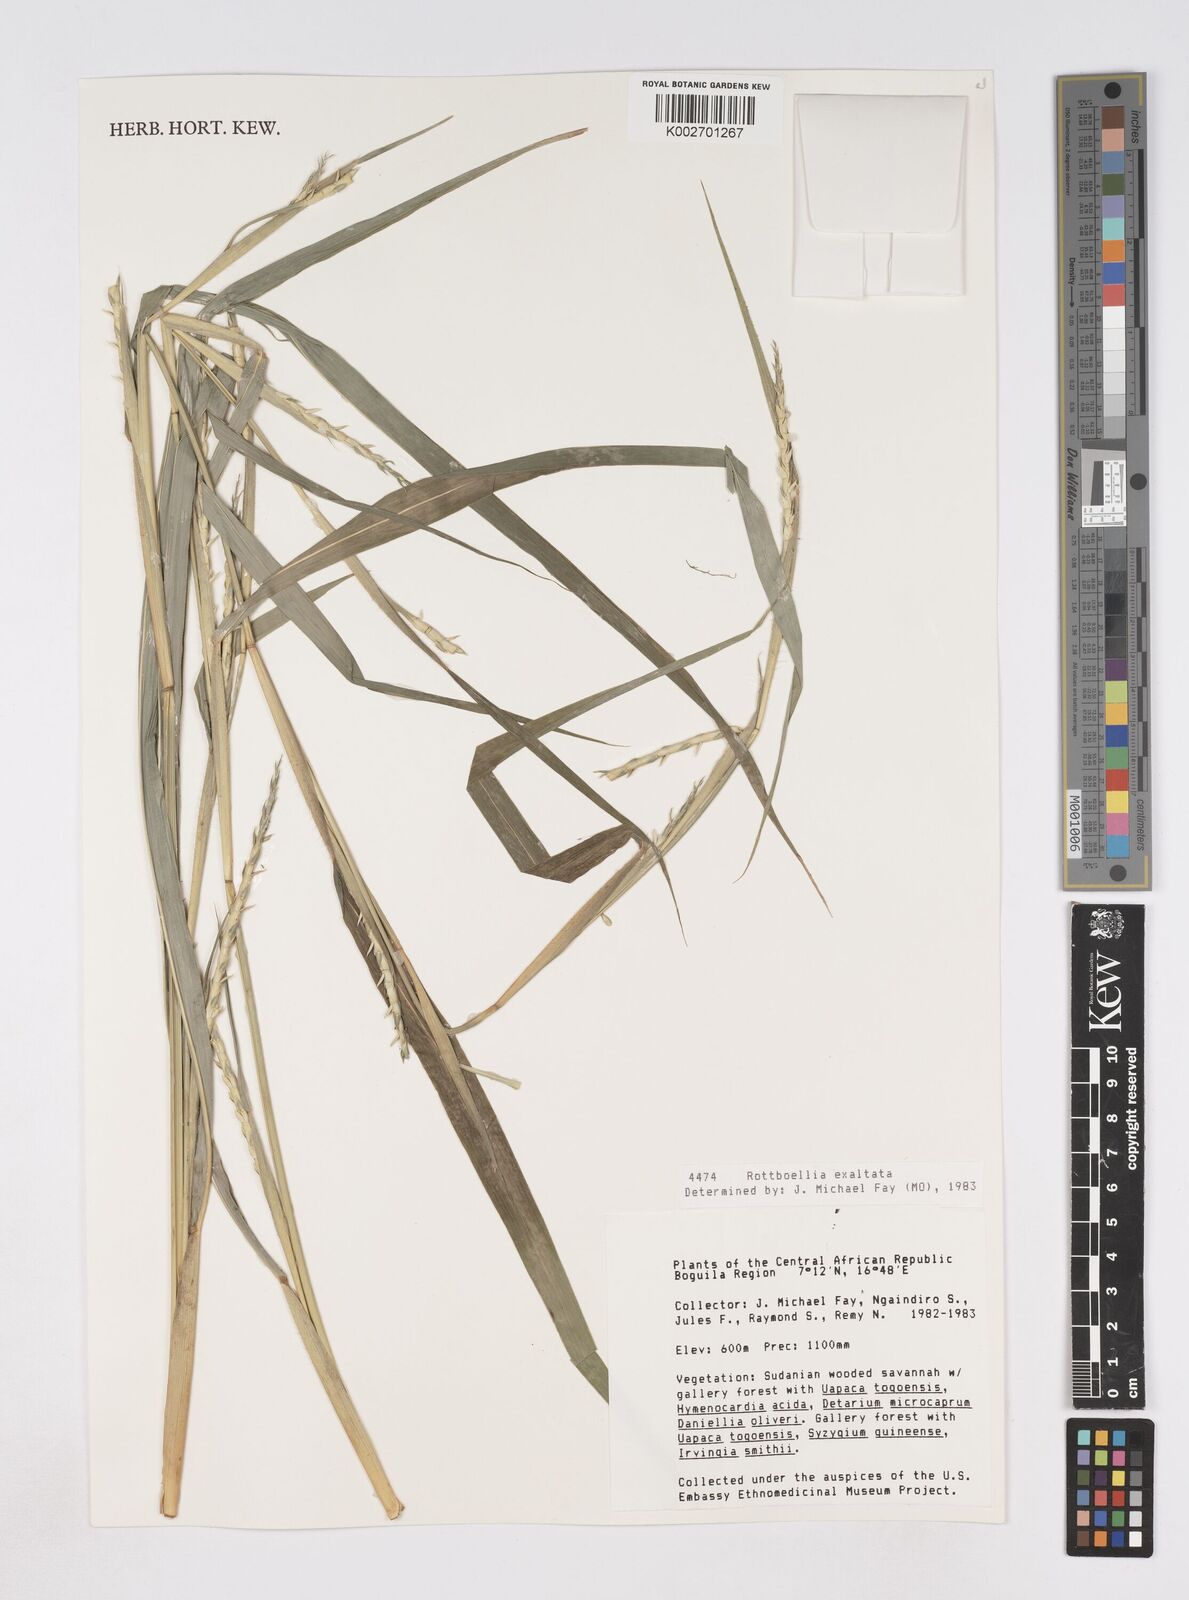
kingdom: Plantae
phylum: Tracheophyta
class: Liliopsida
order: Poales
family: Poaceae
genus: Rottboellia
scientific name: Rottboellia
